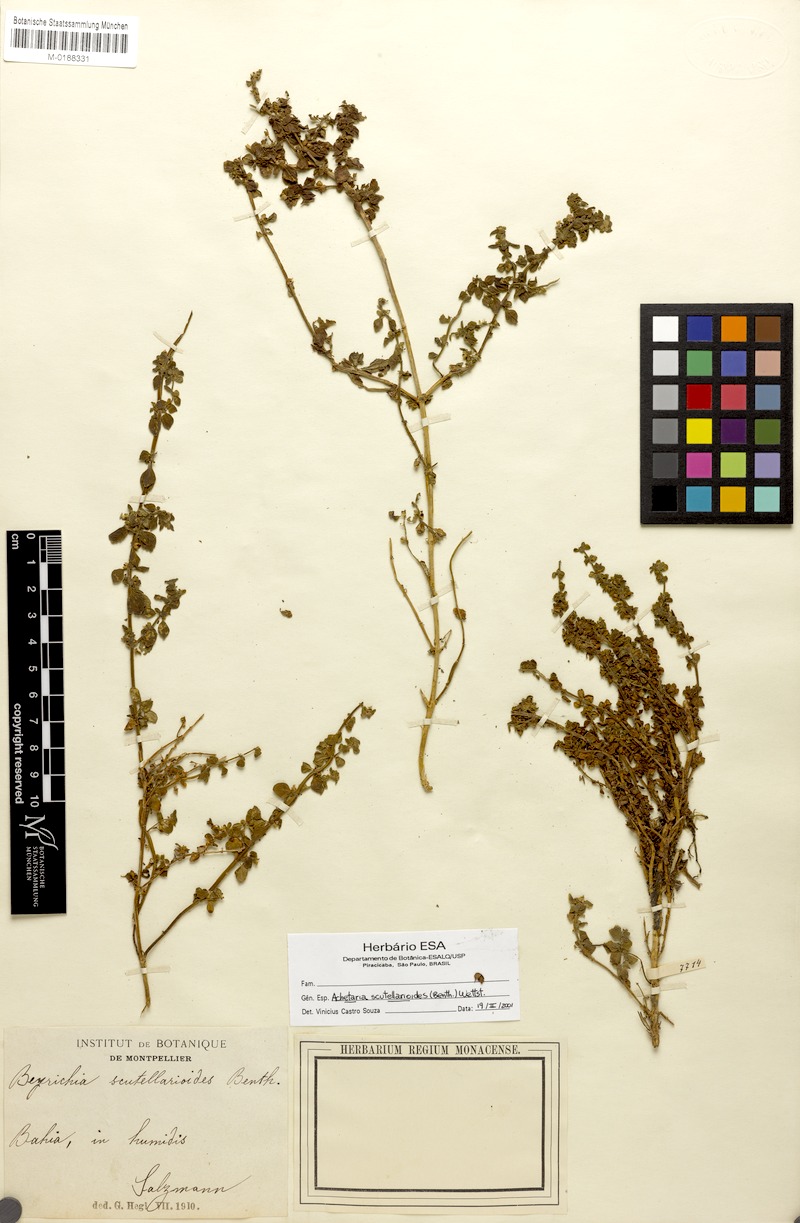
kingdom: Plantae
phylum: Tracheophyta
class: Magnoliopsida
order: Lamiales
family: Plantaginaceae
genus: Matourea
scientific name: Matourea scutellarioides
